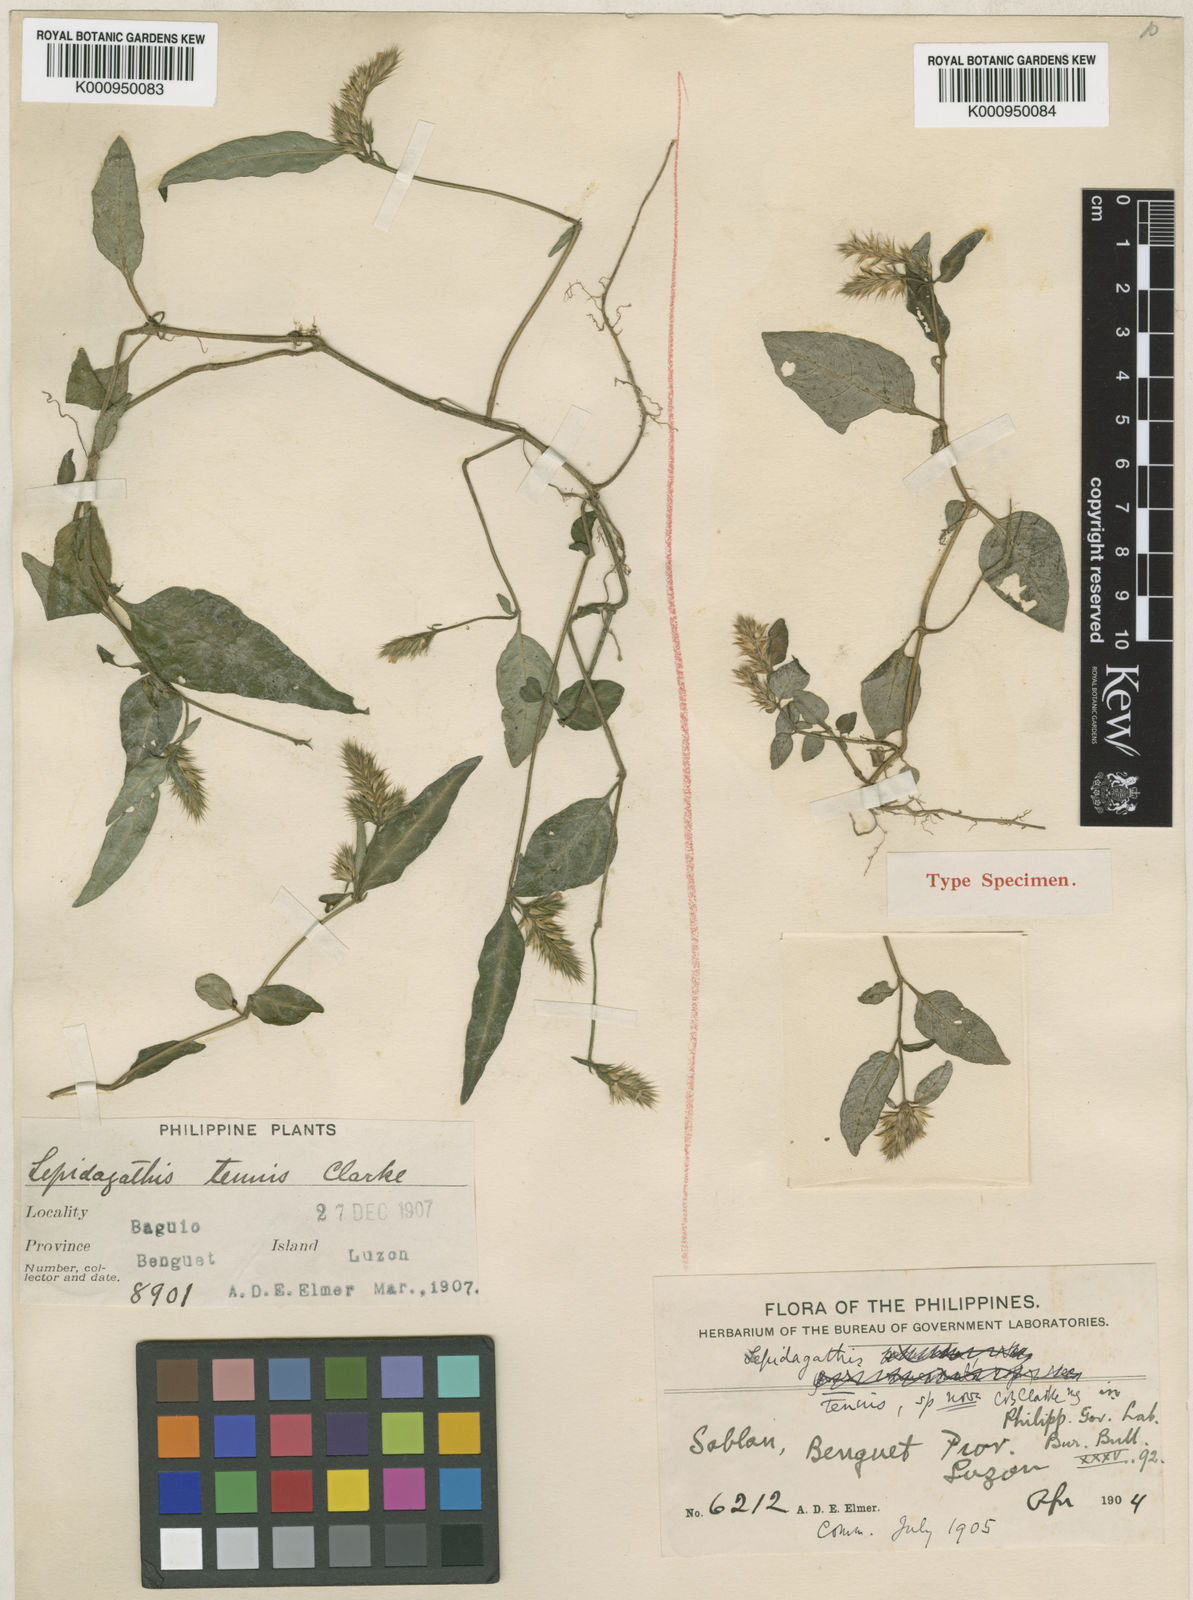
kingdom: Plantae
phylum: Tracheophyta
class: Magnoliopsida
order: Lamiales
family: Acanthaceae
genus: Lepidagathis
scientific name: Lepidagathis tenuis
